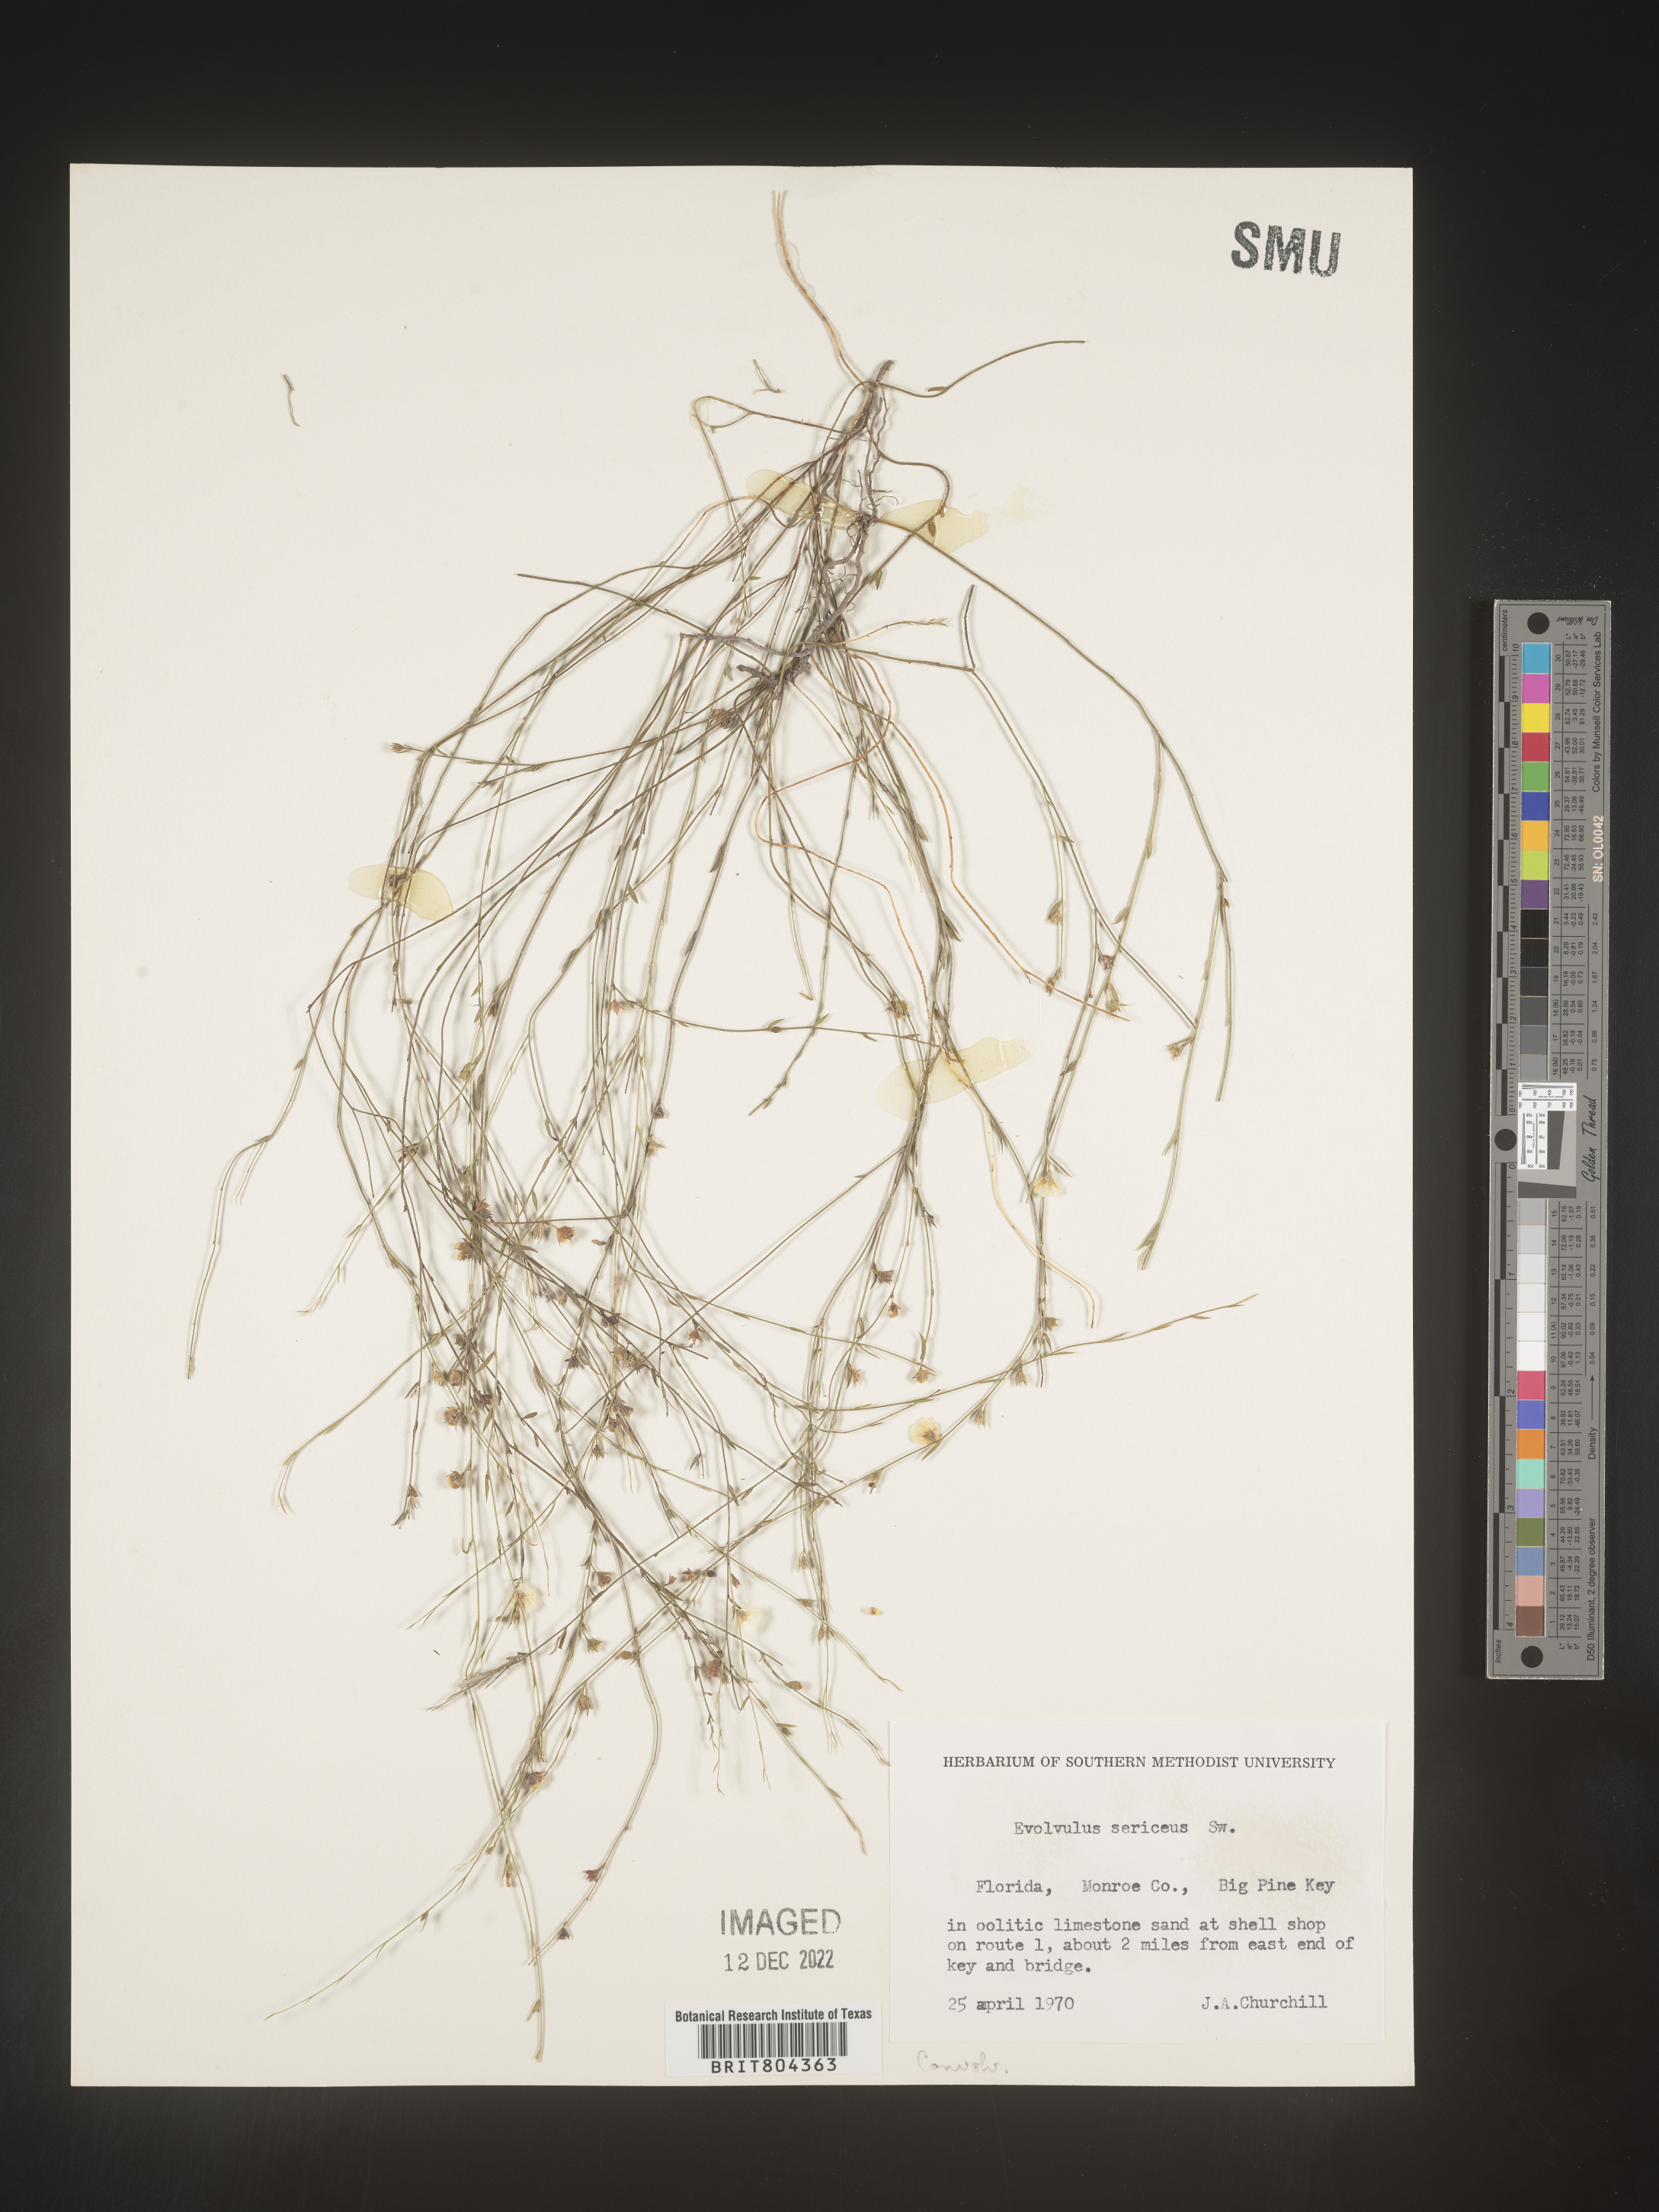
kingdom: Plantae
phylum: Tracheophyta
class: Magnoliopsida
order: Solanales
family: Convolvulaceae
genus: Evolvulus
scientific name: Evolvulus sericeus
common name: Blue dots
